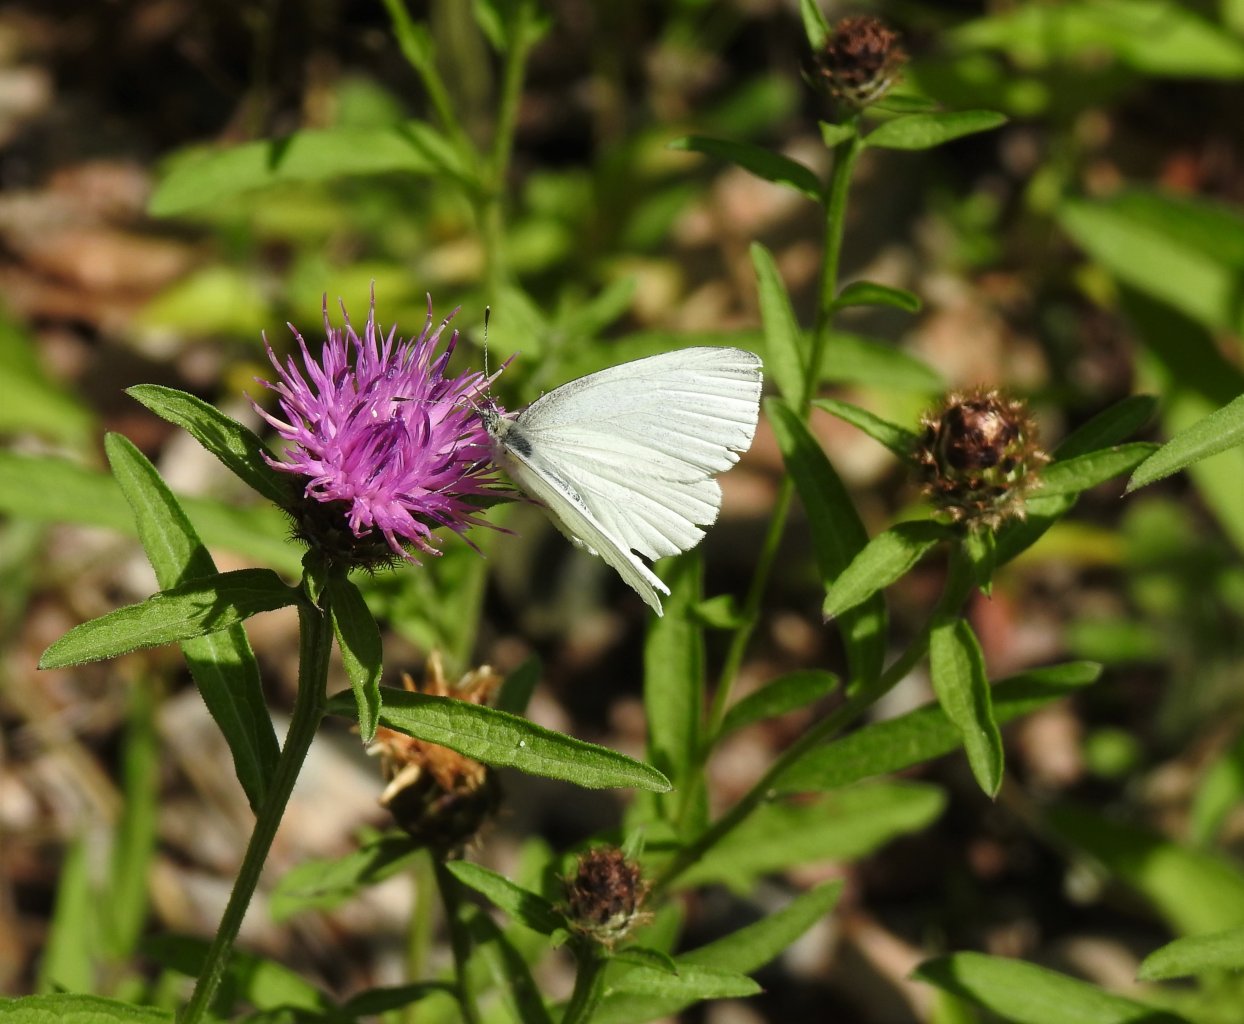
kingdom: Animalia
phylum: Arthropoda
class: Insecta
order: Lepidoptera
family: Pieridae
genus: Pieris
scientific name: Pieris oleracea
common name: Mustard White
